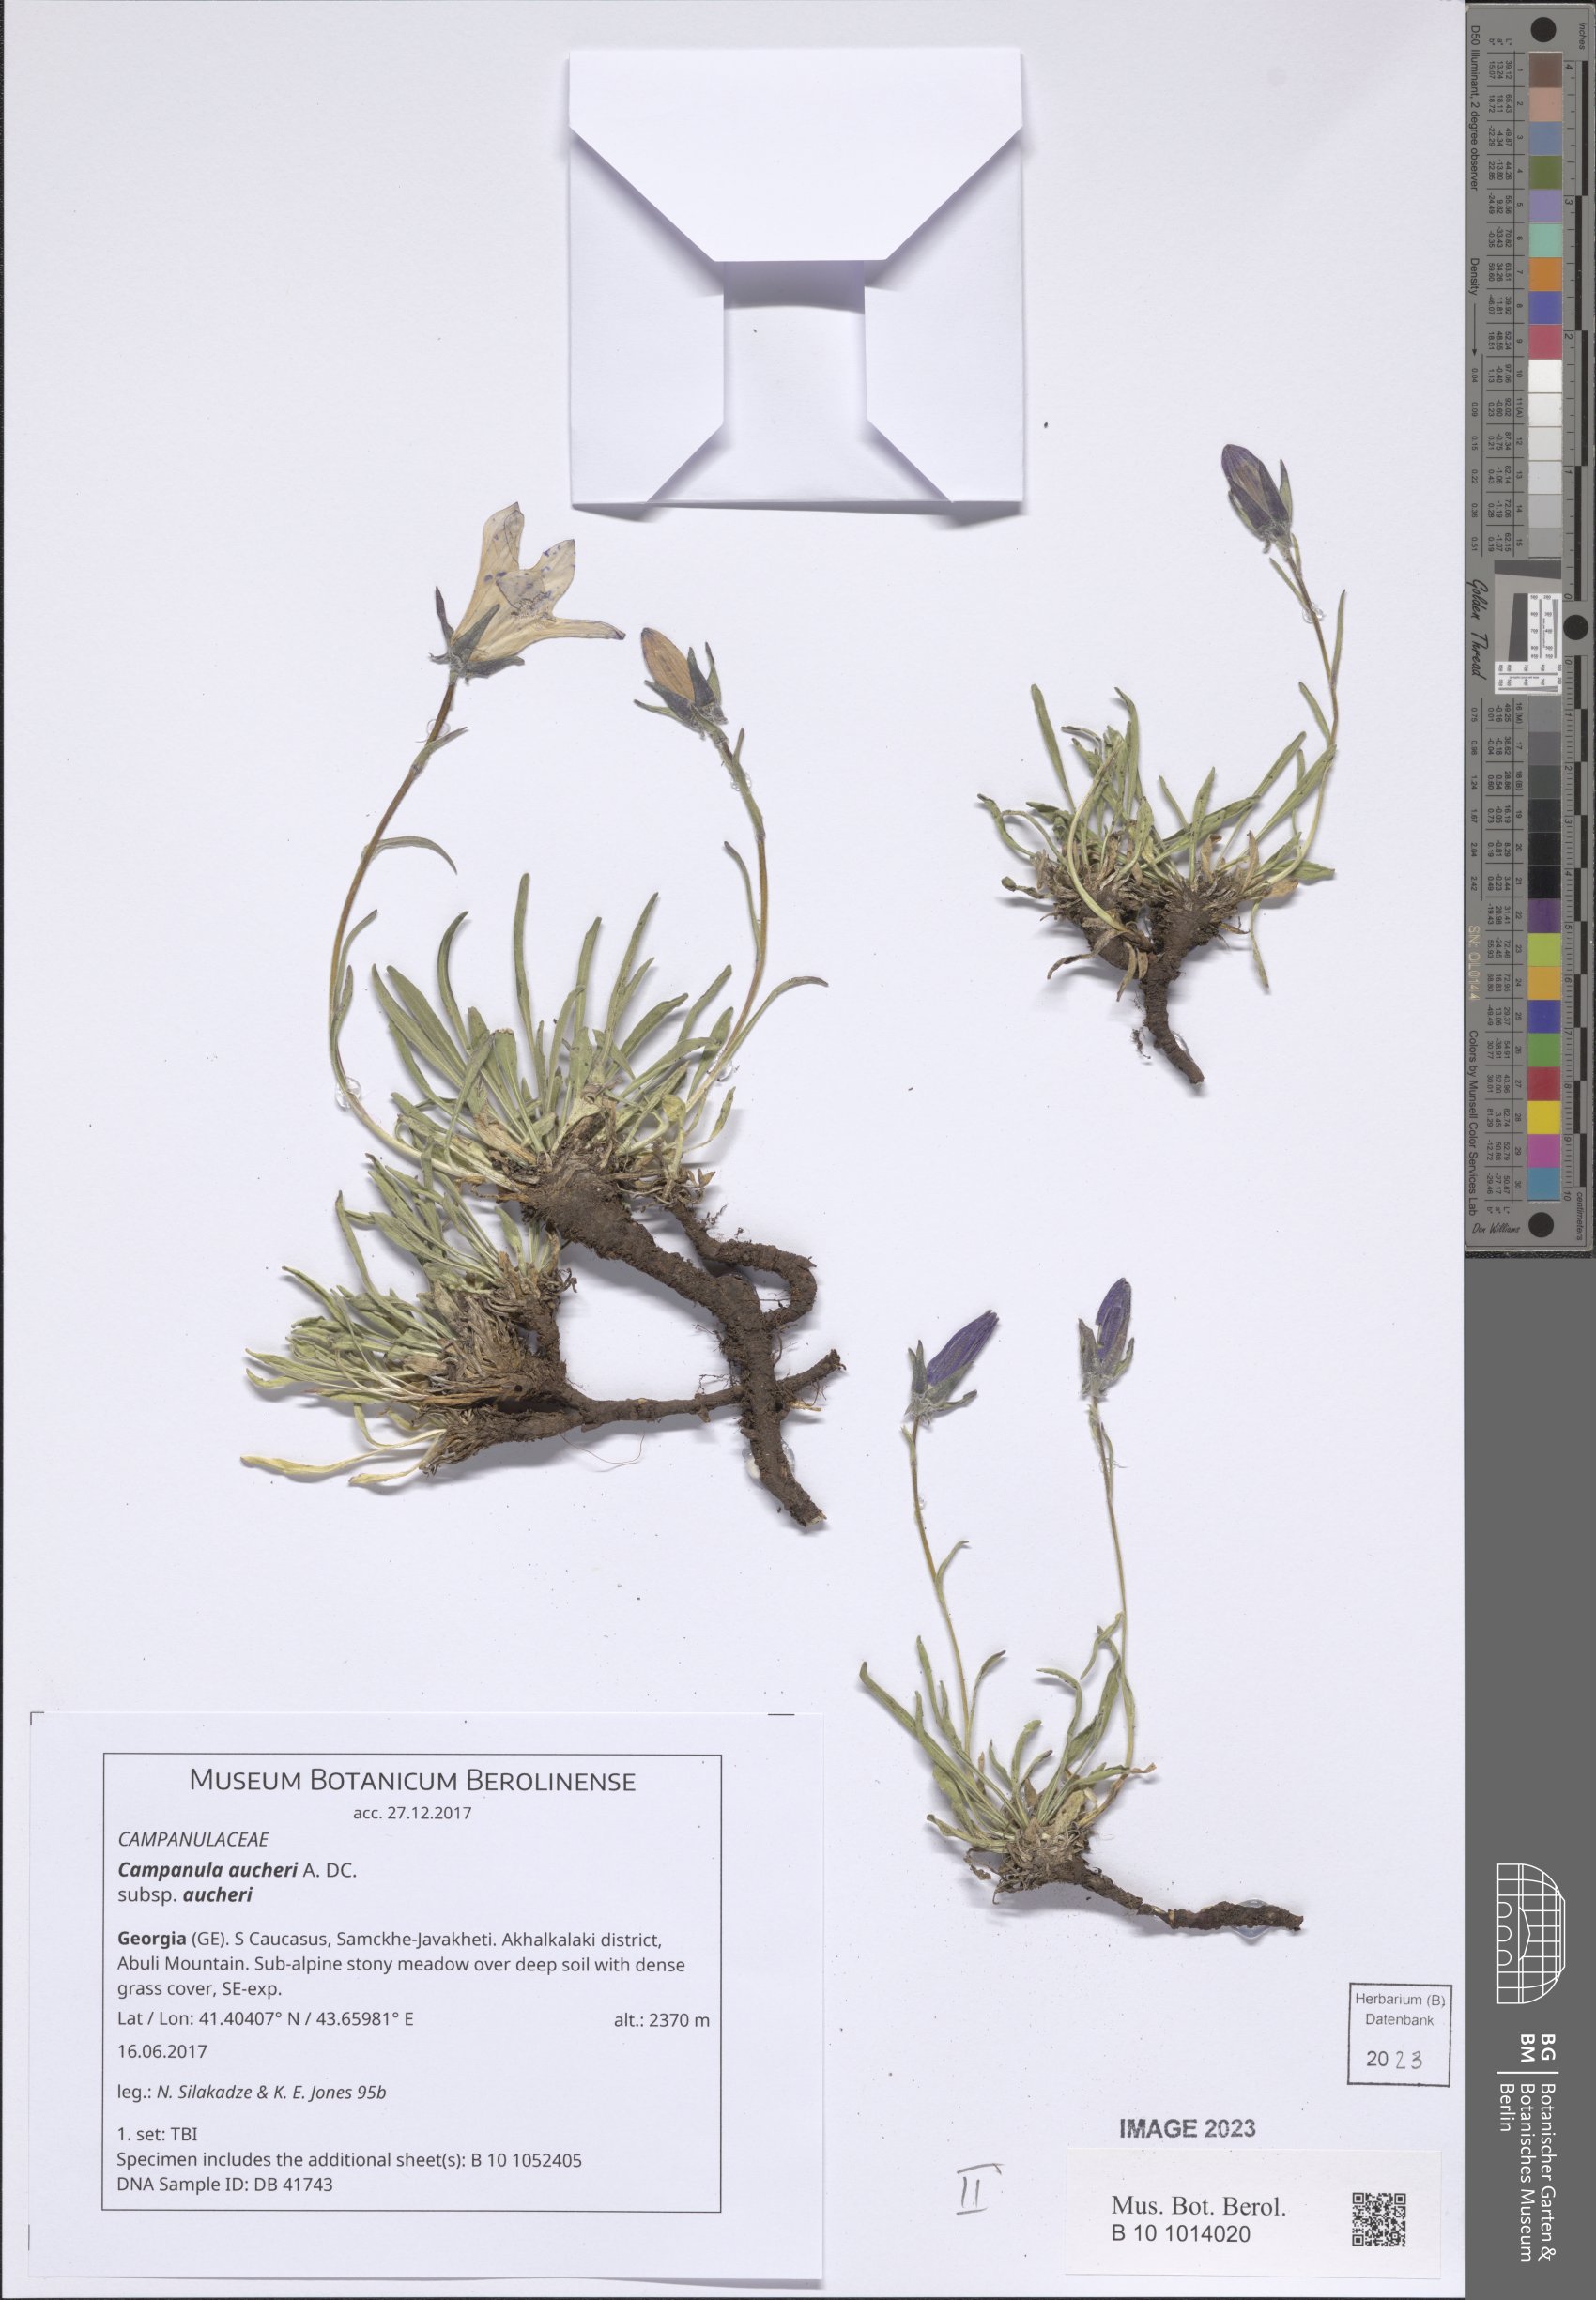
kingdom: Plantae
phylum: Tracheophyta
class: Magnoliopsida
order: Asterales
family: Campanulaceae
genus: Campanula
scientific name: Campanula saxifraga
